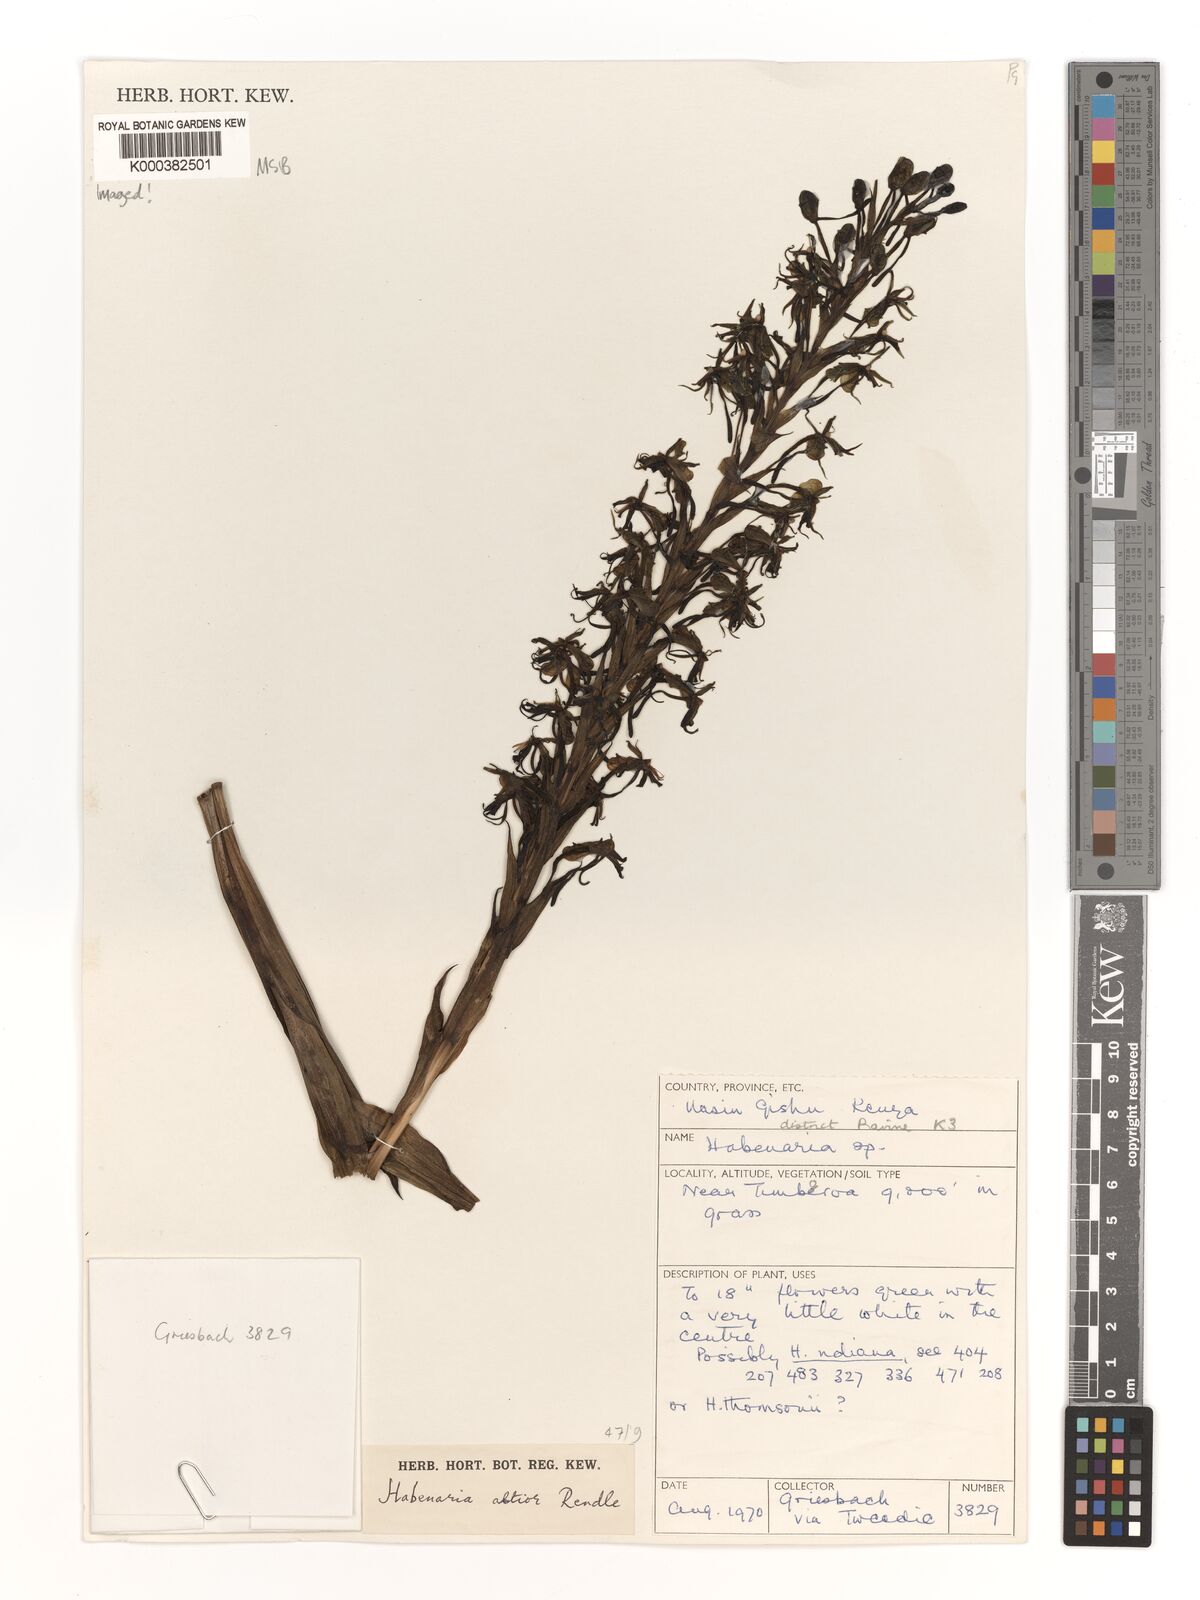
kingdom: Plantae
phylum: Tracheophyta
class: Liliopsida
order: Asparagales
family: Orchidaceae
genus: Habenaria
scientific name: Habenaria altior
